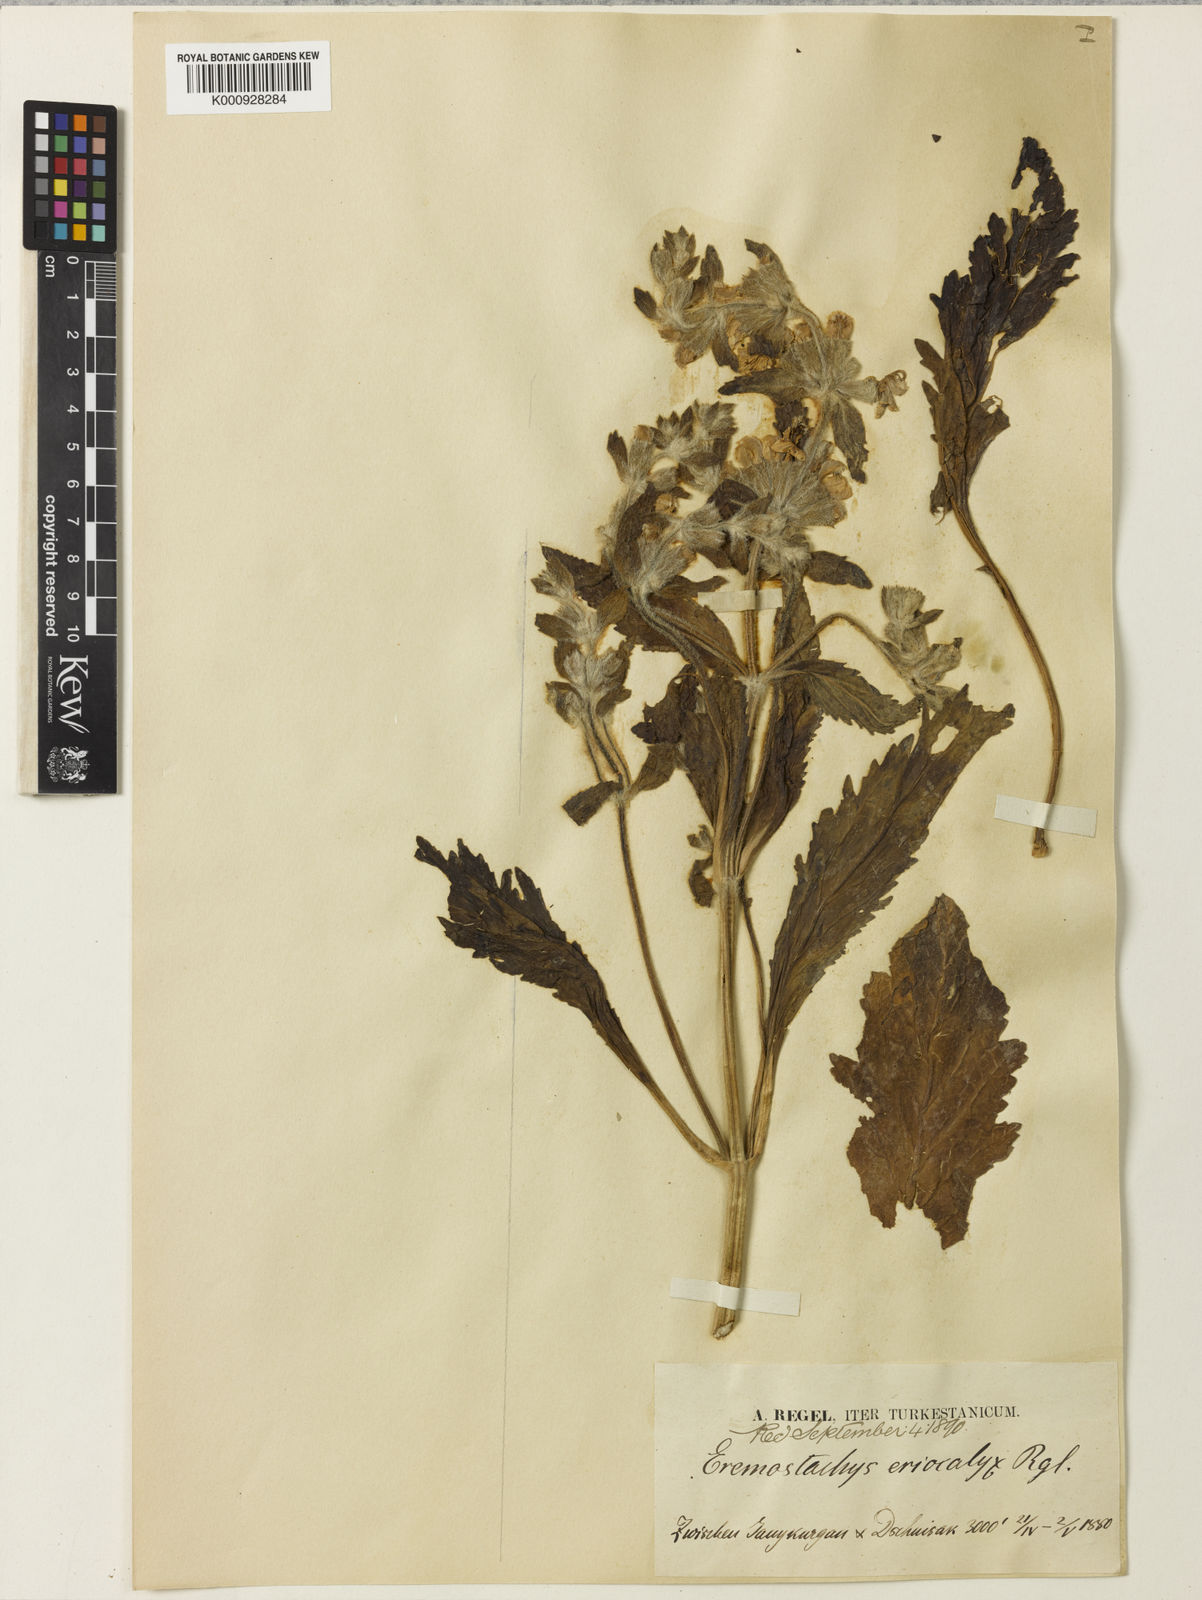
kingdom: Plantae
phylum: Tracheophyta
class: Magnoliopsida
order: Lamiales
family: Lamiaceae
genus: Phlomoides
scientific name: Phlomoides eriocalyx
